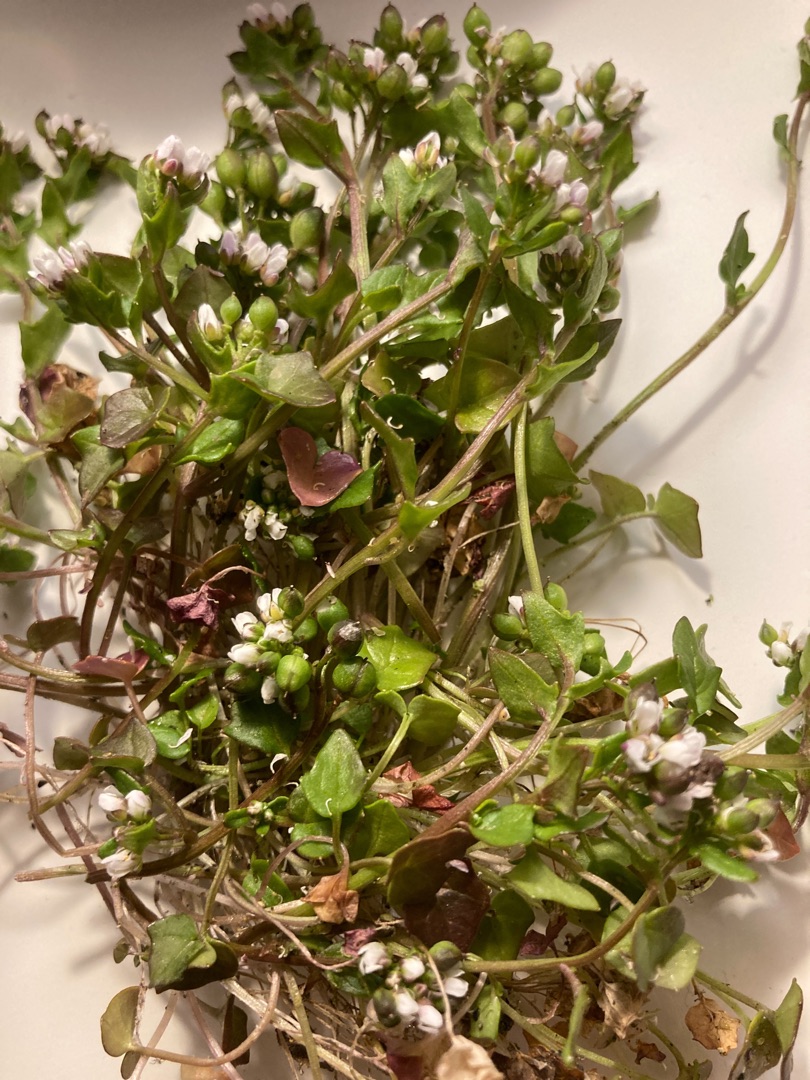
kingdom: Plantae
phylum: Tracheophyta
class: Magnoliopsida
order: Brassicales
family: Brassicaceae
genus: Cochlearia
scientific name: Cochlearia danica
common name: Dansk kokleare
